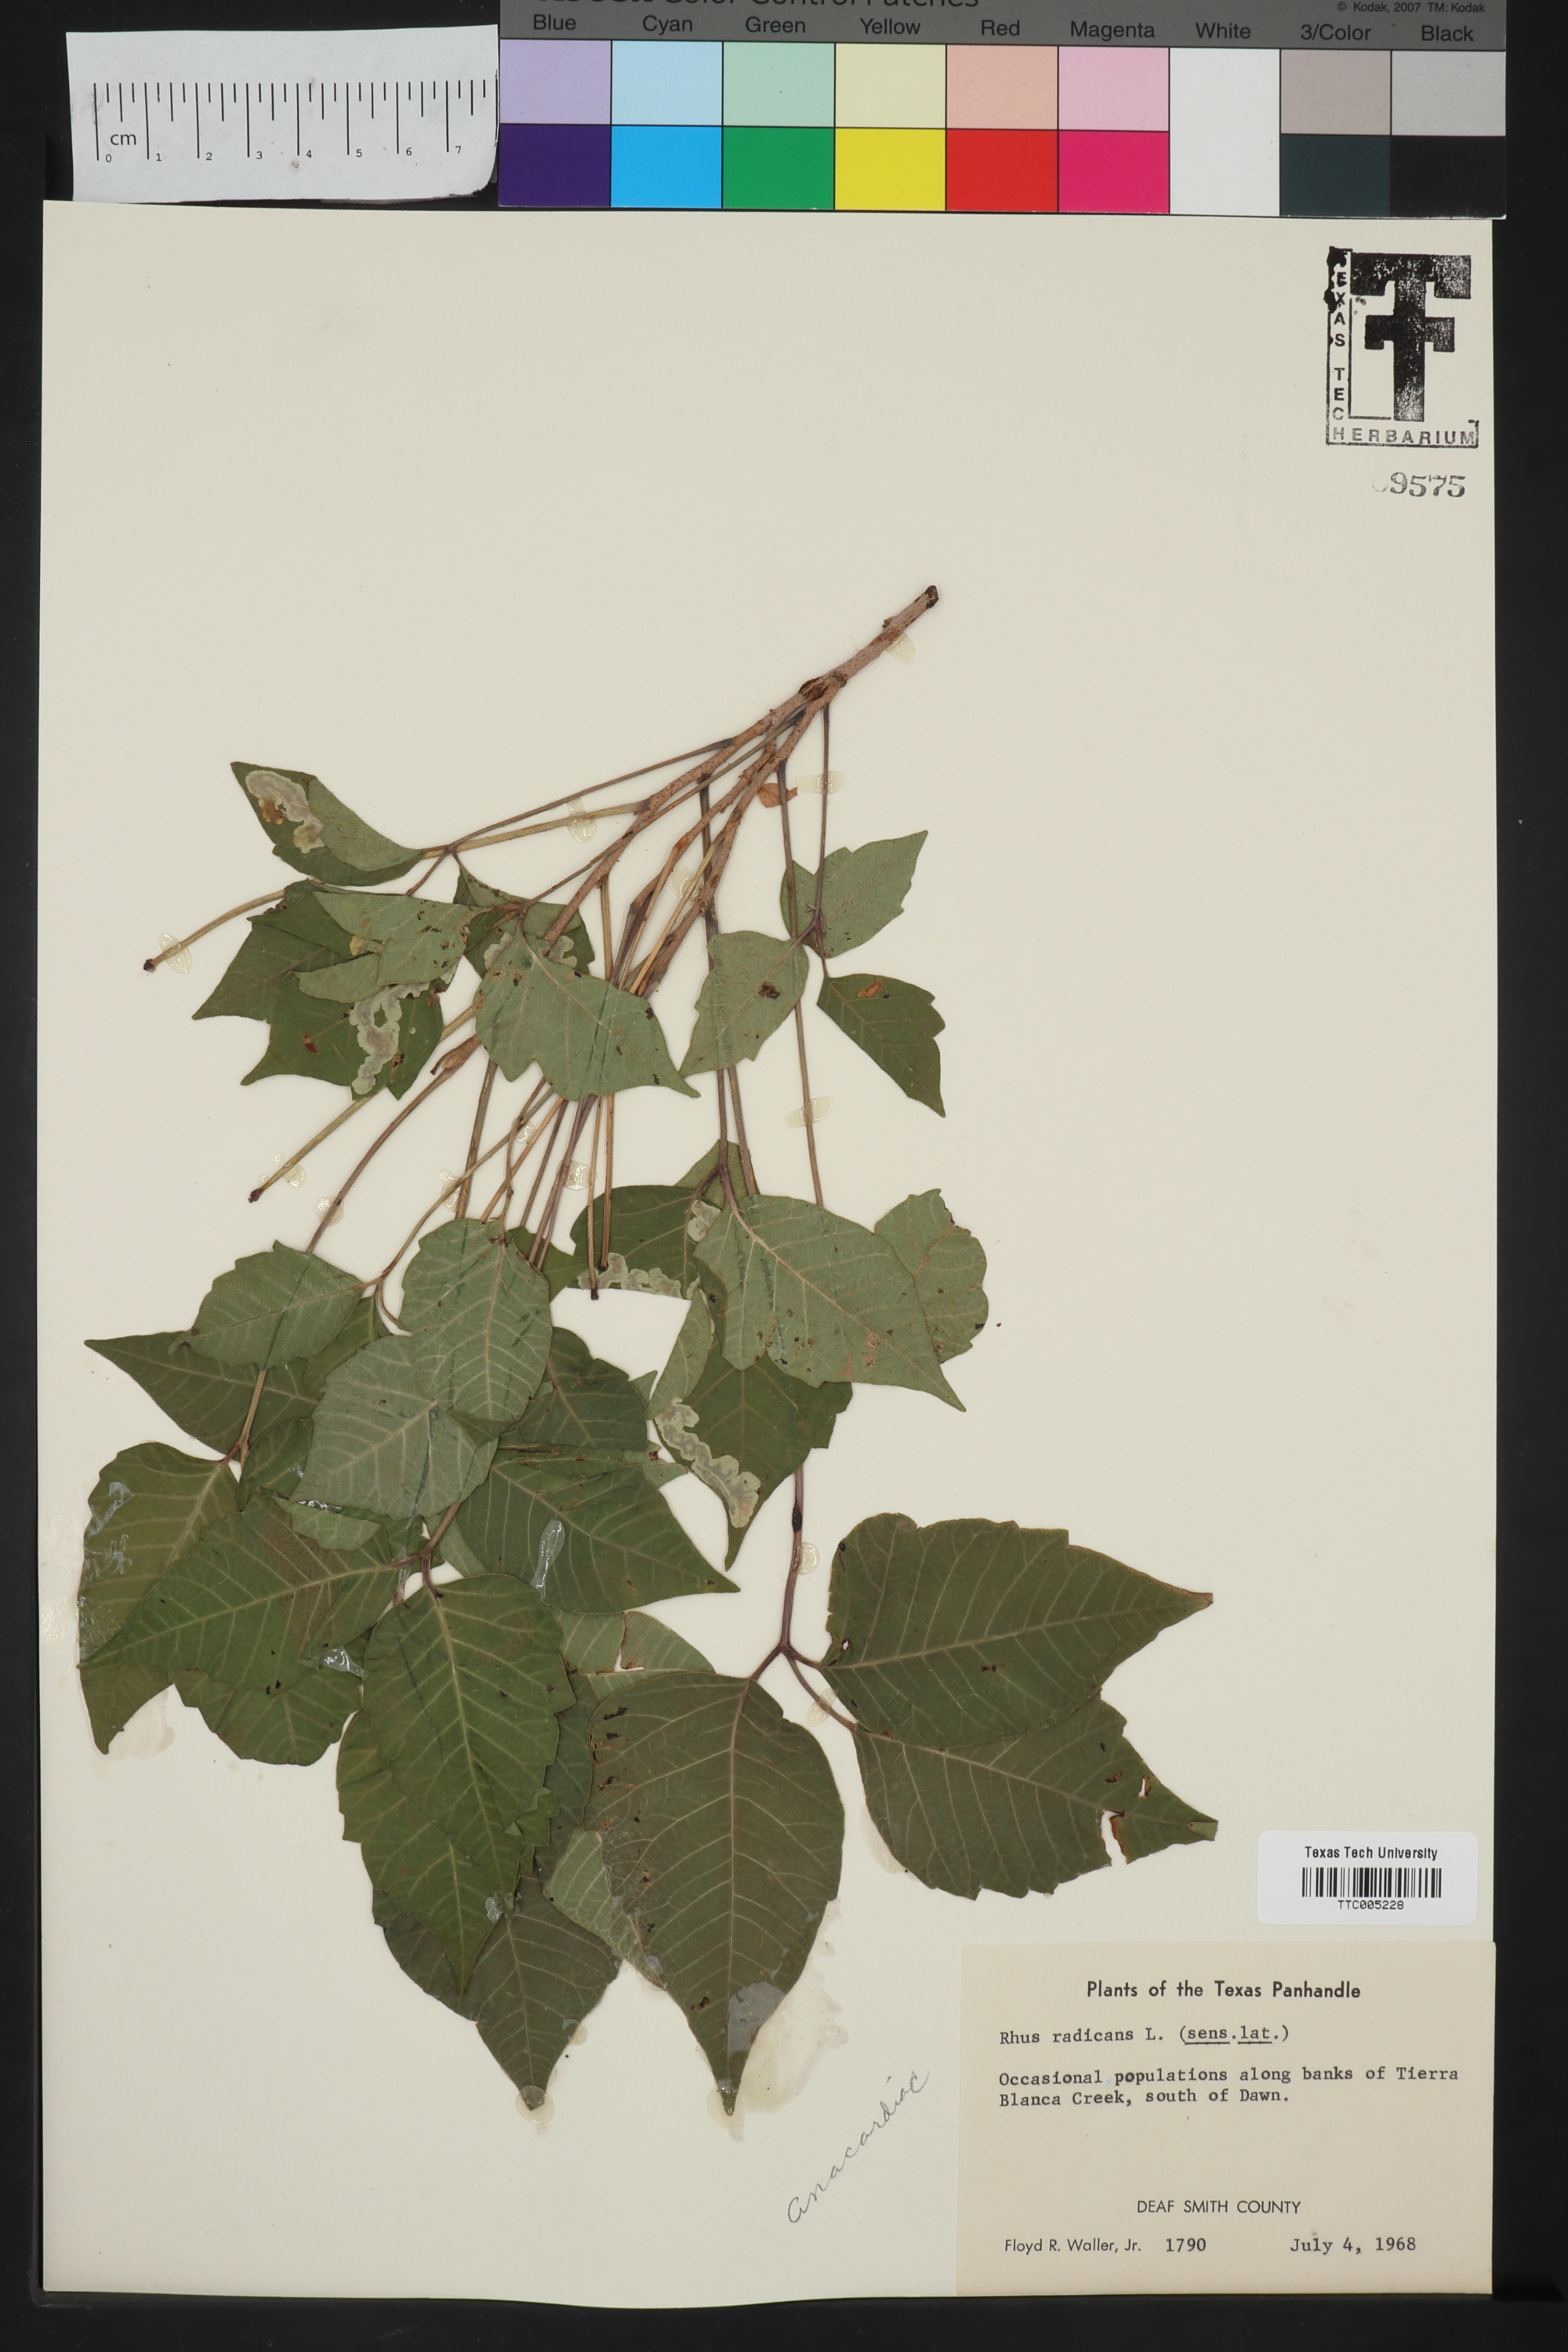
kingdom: Plantae
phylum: Tracheophyta
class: Magnoliopsida
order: Sapindales
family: Anacardiaceae
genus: Toxicodendron
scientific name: Toxicodendron radicans
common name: Poison ivy
